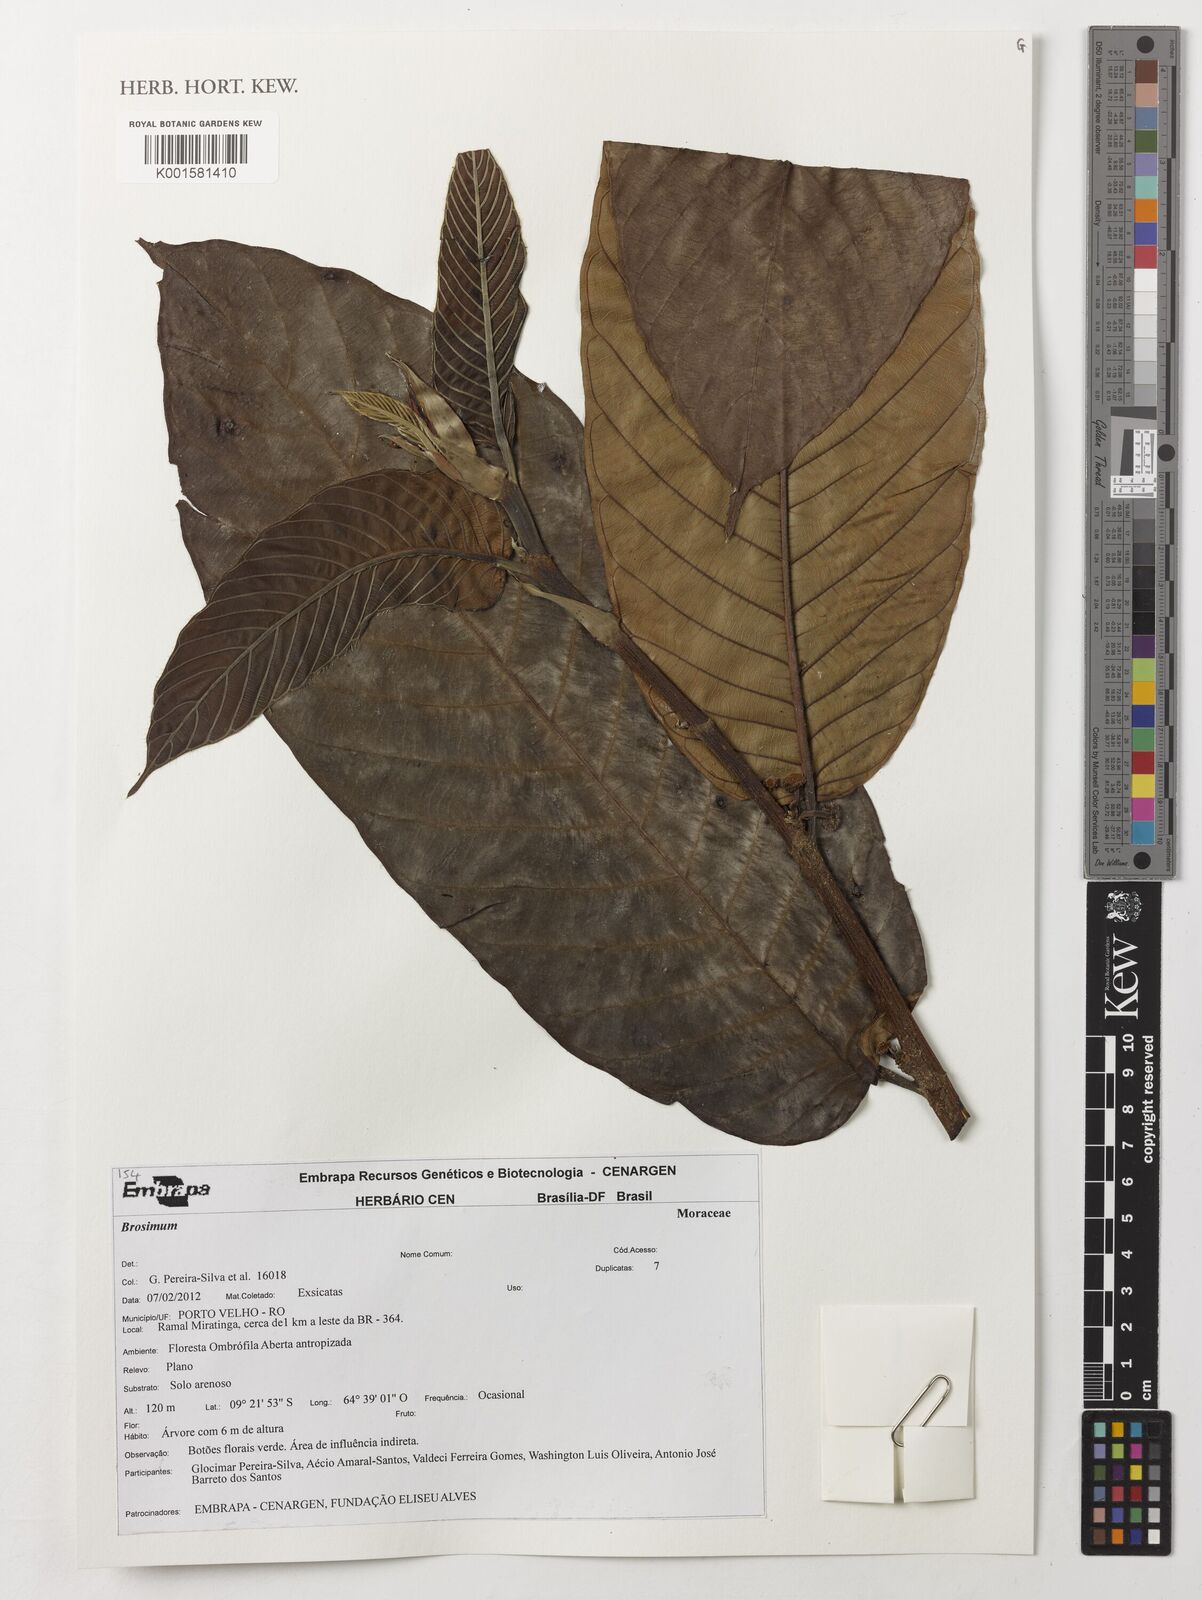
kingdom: Plantae
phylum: Tracheophyta
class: Magnoliopsida
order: Rosales
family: Moraceae
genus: Brosimum
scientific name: Brosimum
